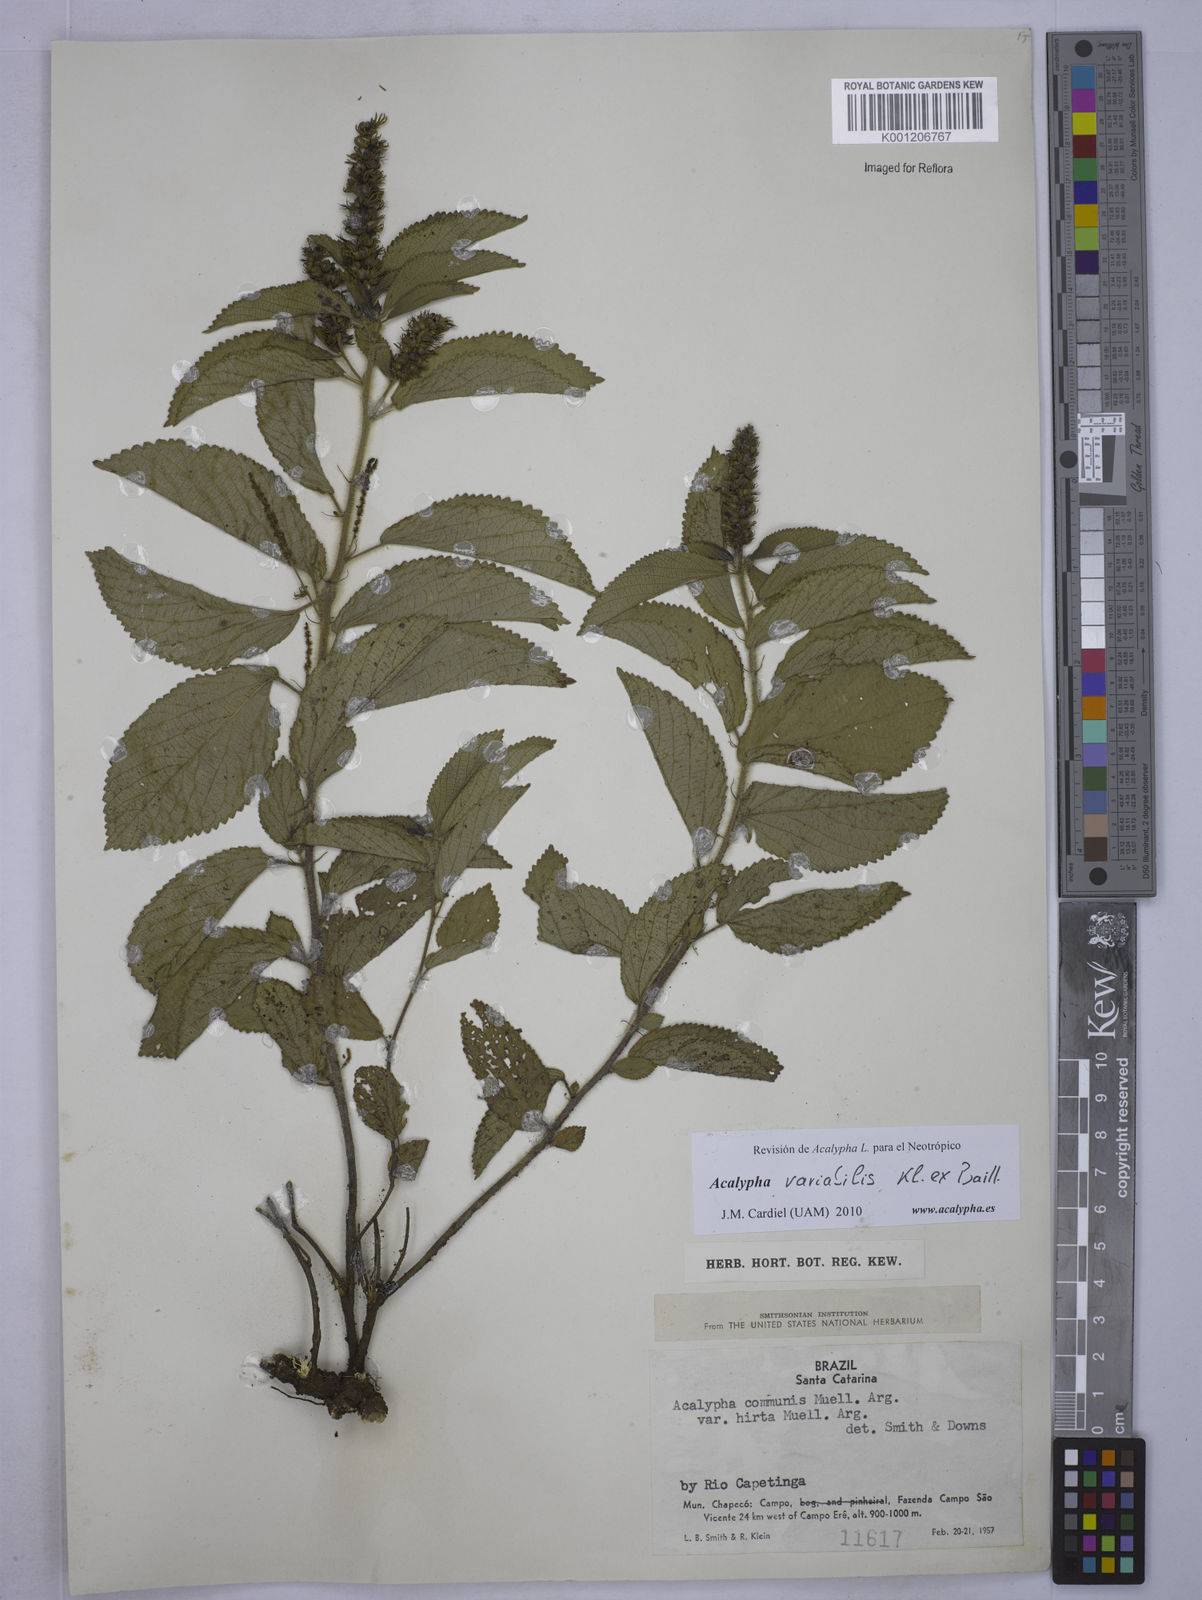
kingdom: Plantae
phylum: Tracheophyta
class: Magnoliopsida
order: Malpighiales
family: Euphorbiaceae
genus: Acalypha
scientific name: Acalypha variabilis
